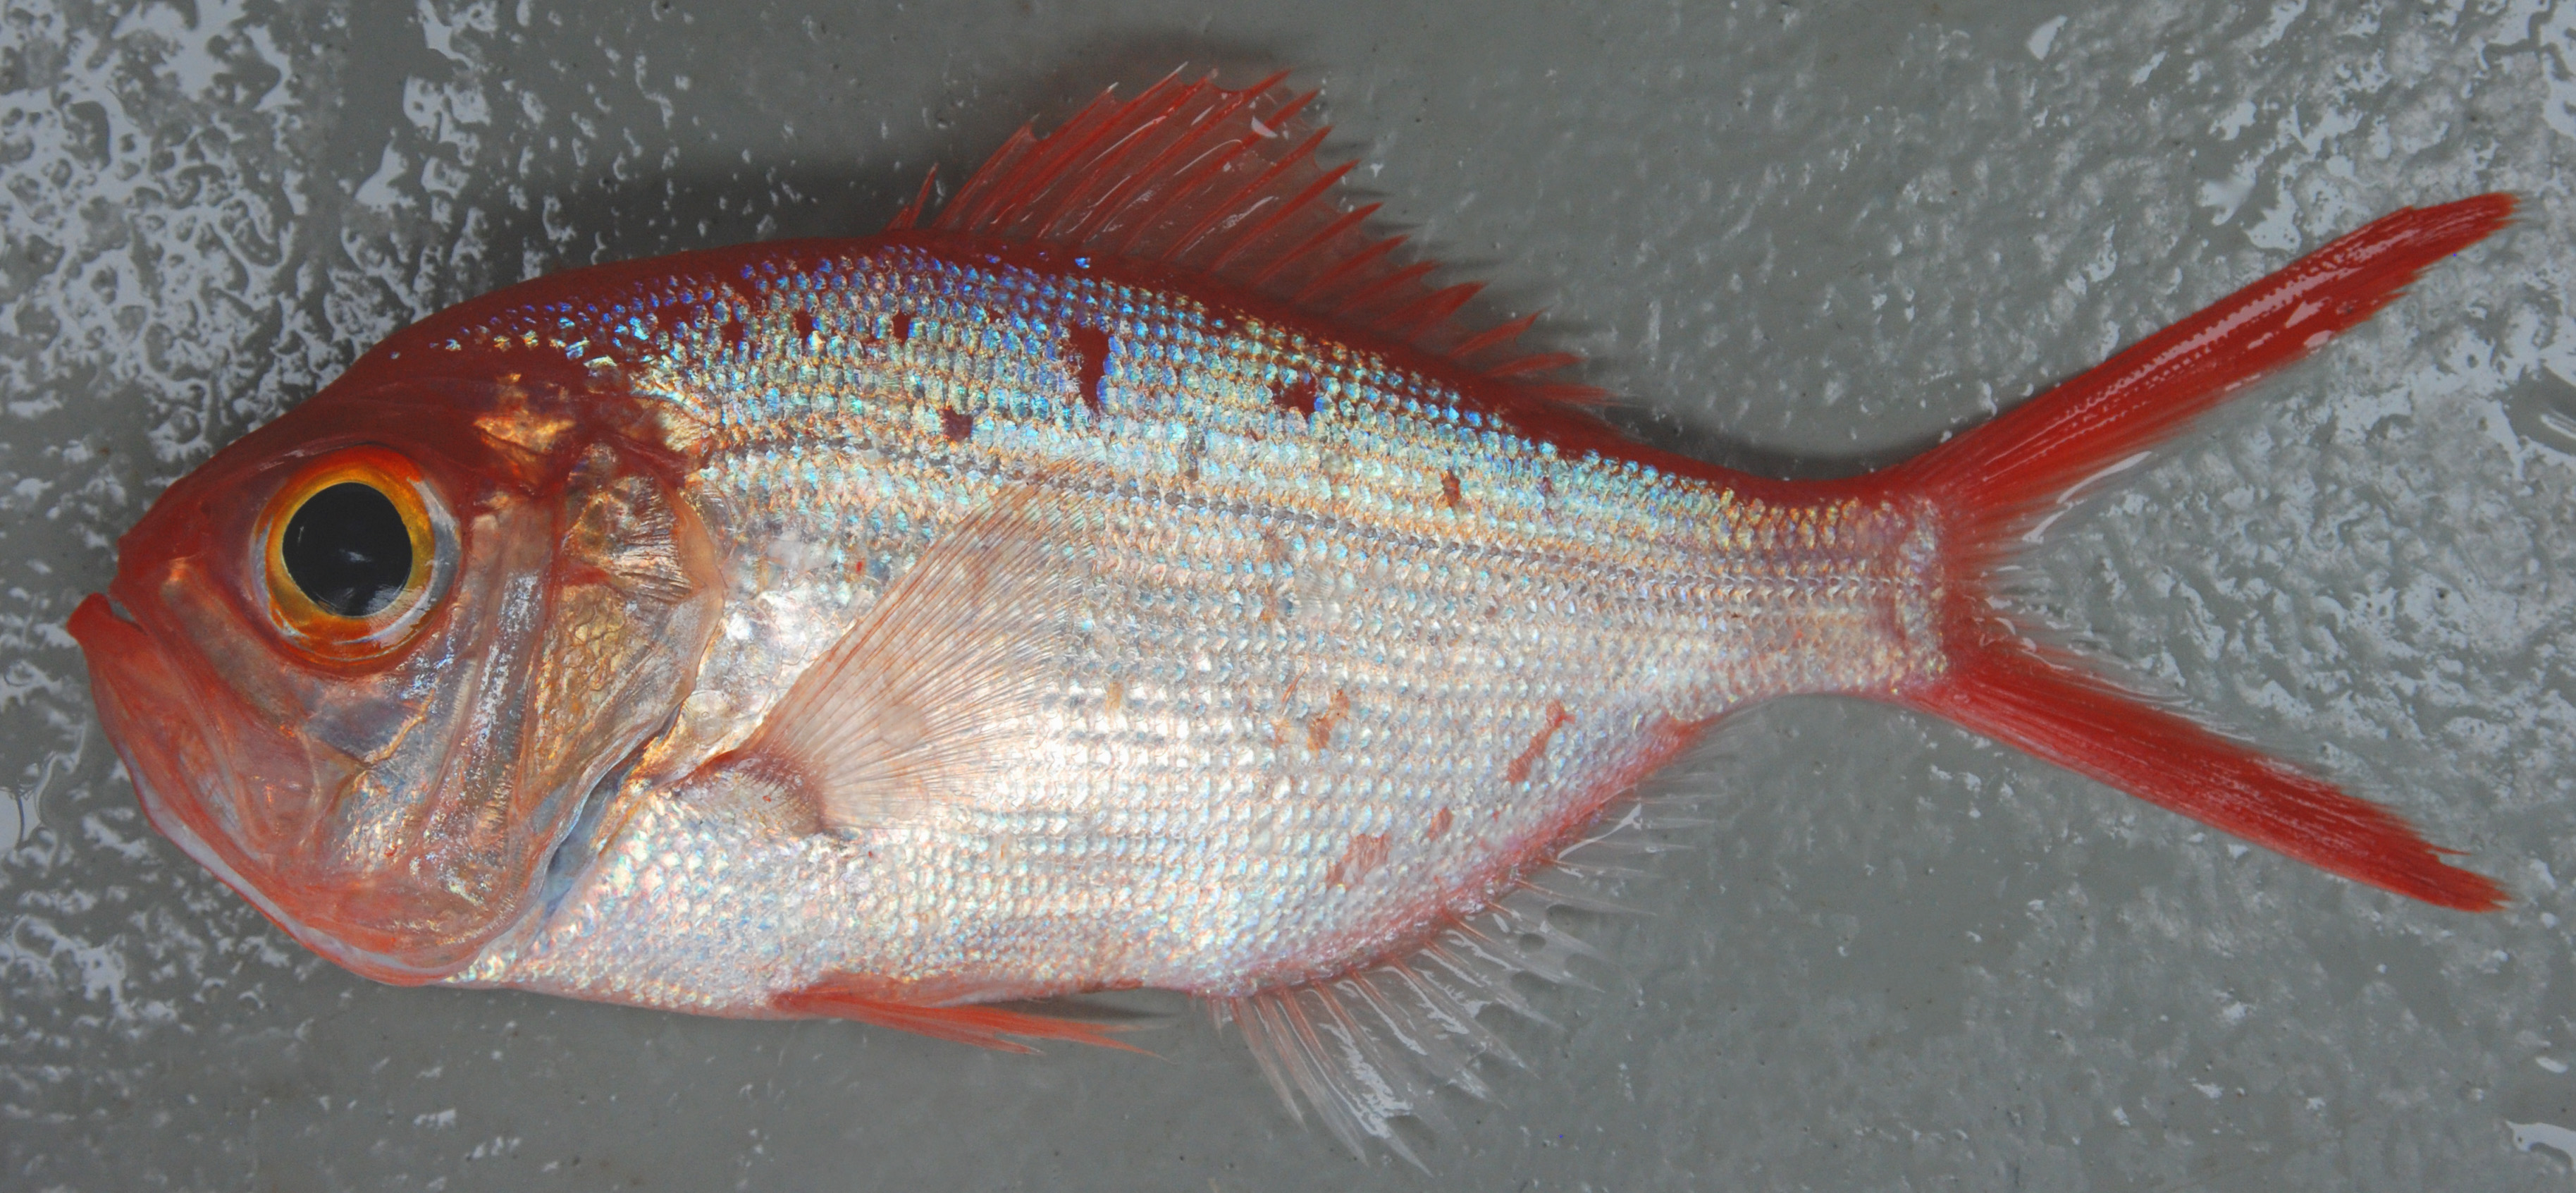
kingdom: Animalia
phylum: Chordata
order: Beryciformes
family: Berycidae
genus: Centroberyx
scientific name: Centroberyx lineatus
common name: Kingfish
